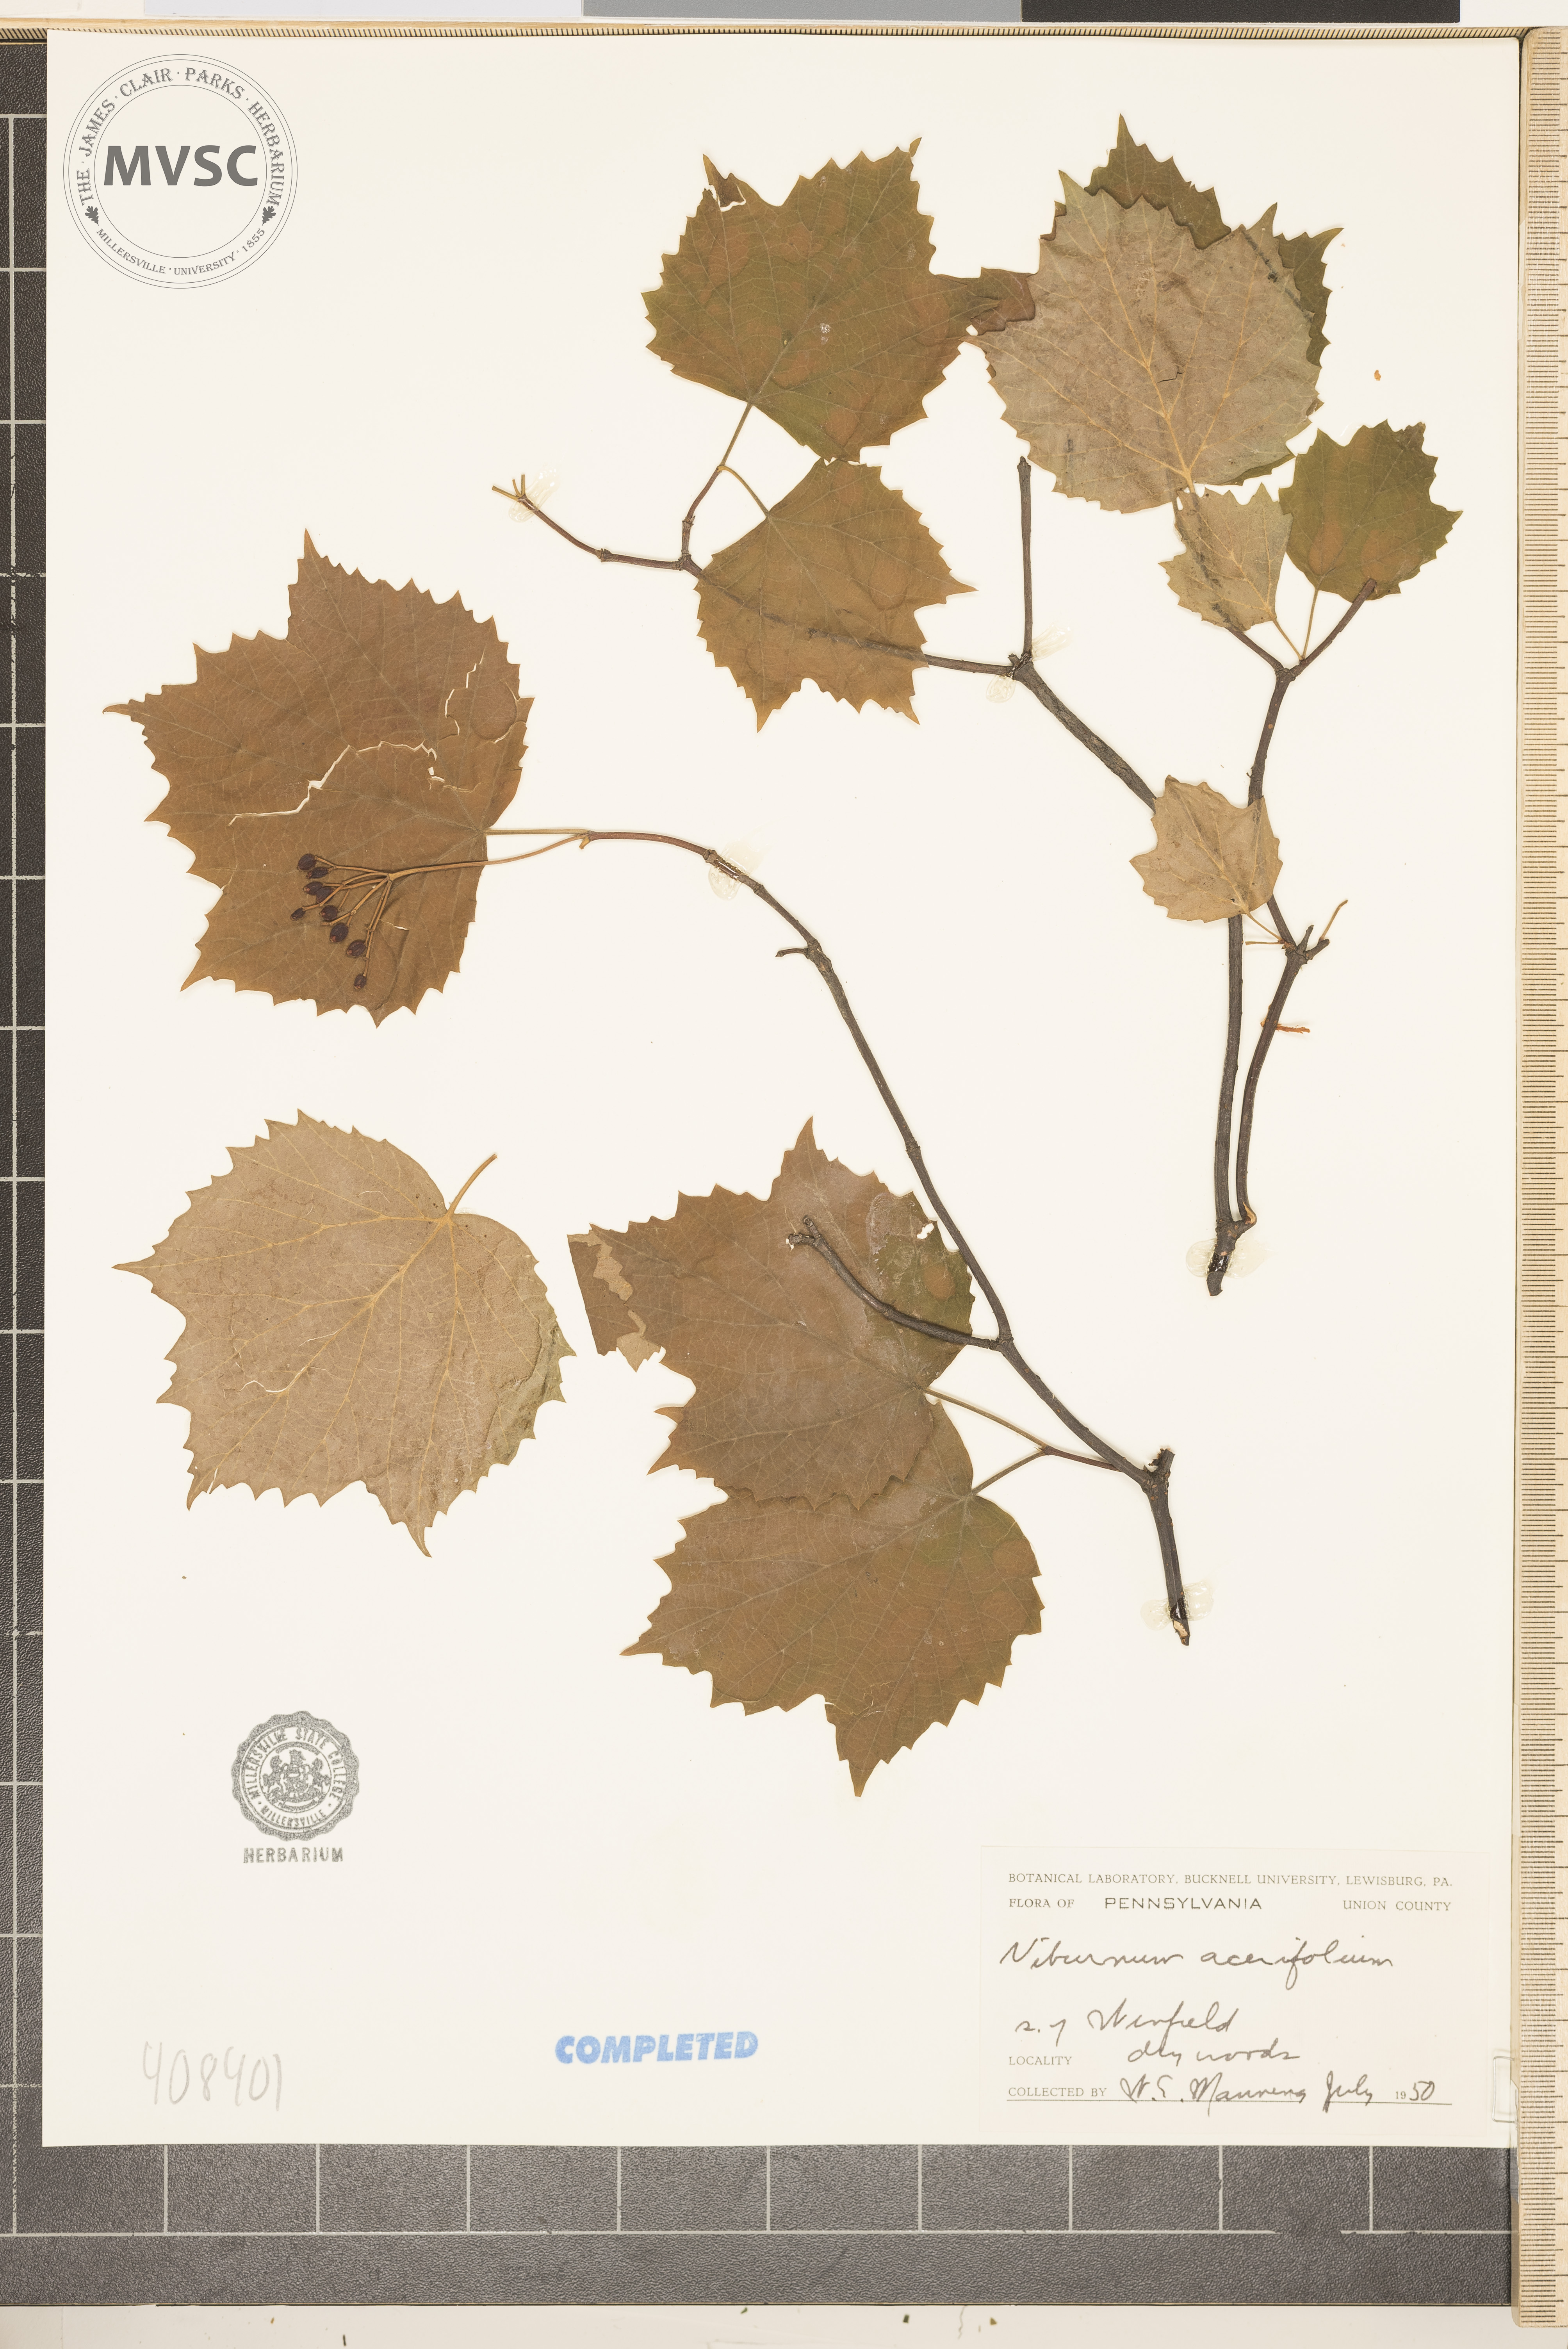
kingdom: Plantae
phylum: Tracheophyta
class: Magnoliopsida
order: Dipsacales
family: Viburnaceae
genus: Viburnum
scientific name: Viburnum acerifolium
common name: mapleleaf viburnum
